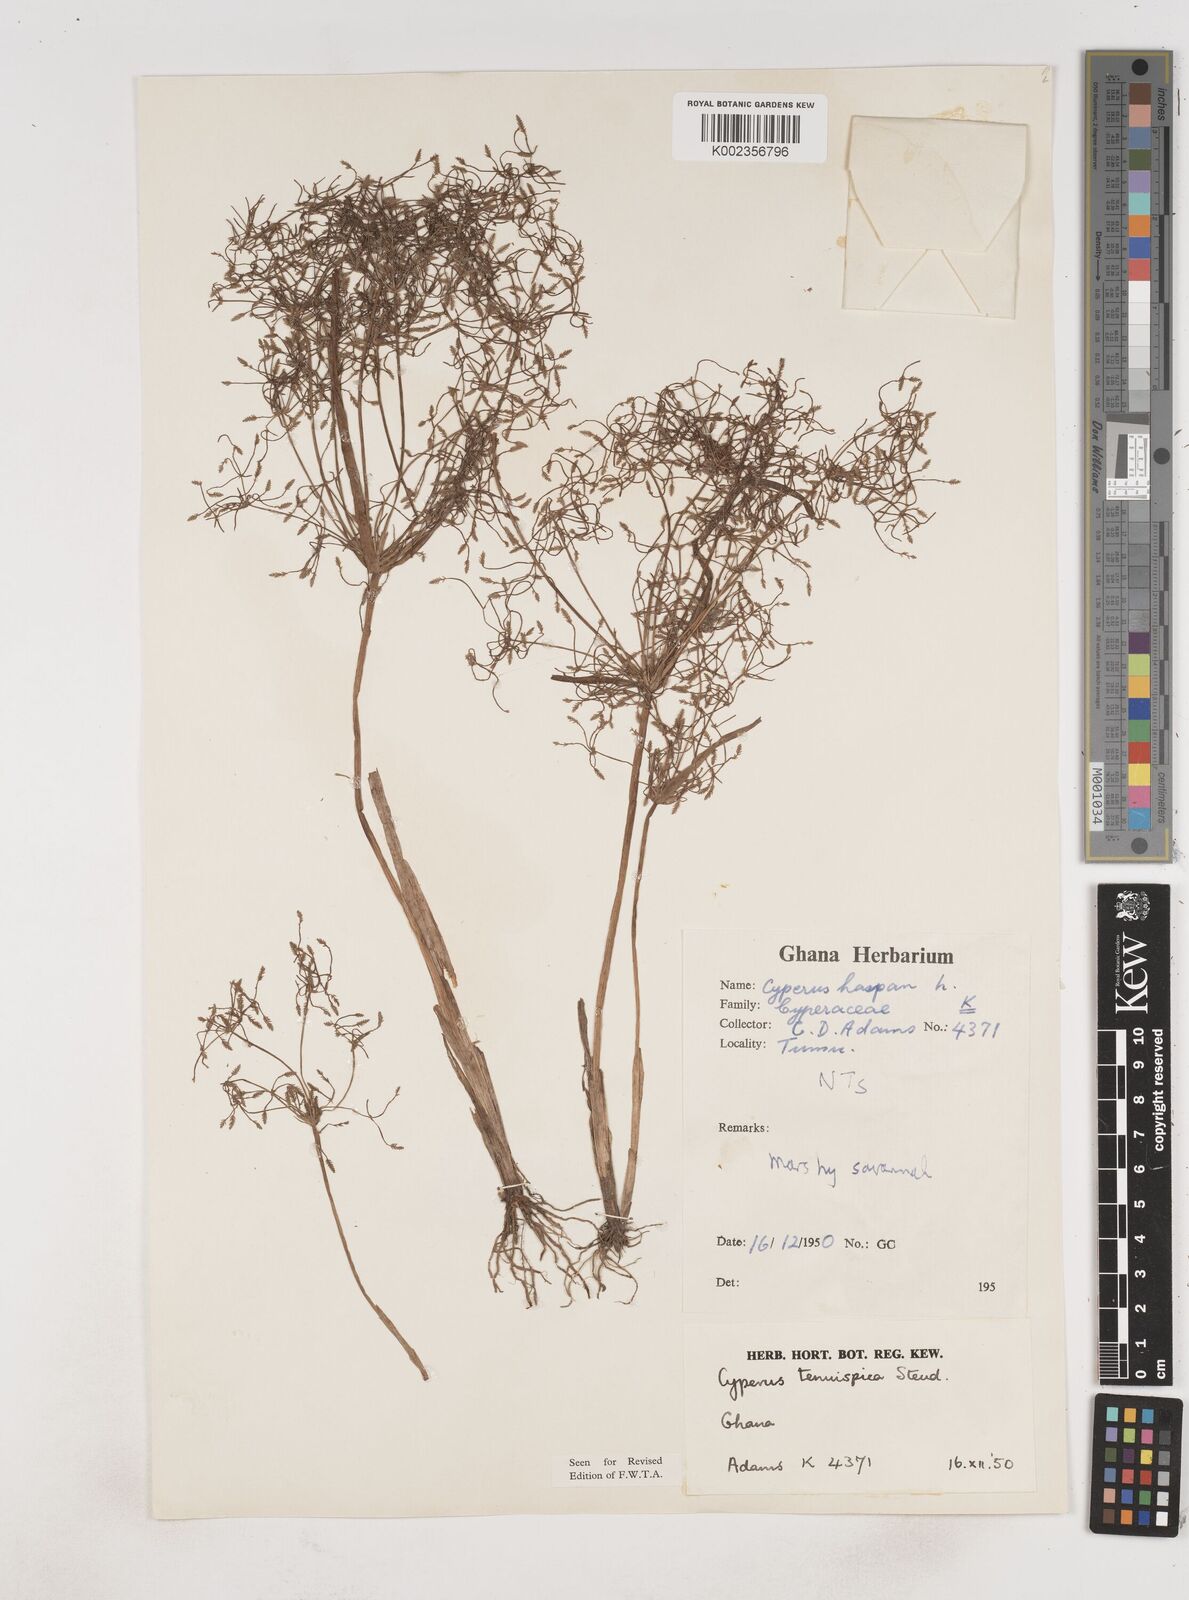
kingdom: Plantae
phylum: Tracheophyta
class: Liliopsida
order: Poales
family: Cyperaceae
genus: Cyperus
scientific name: Cyperus tenuispica
